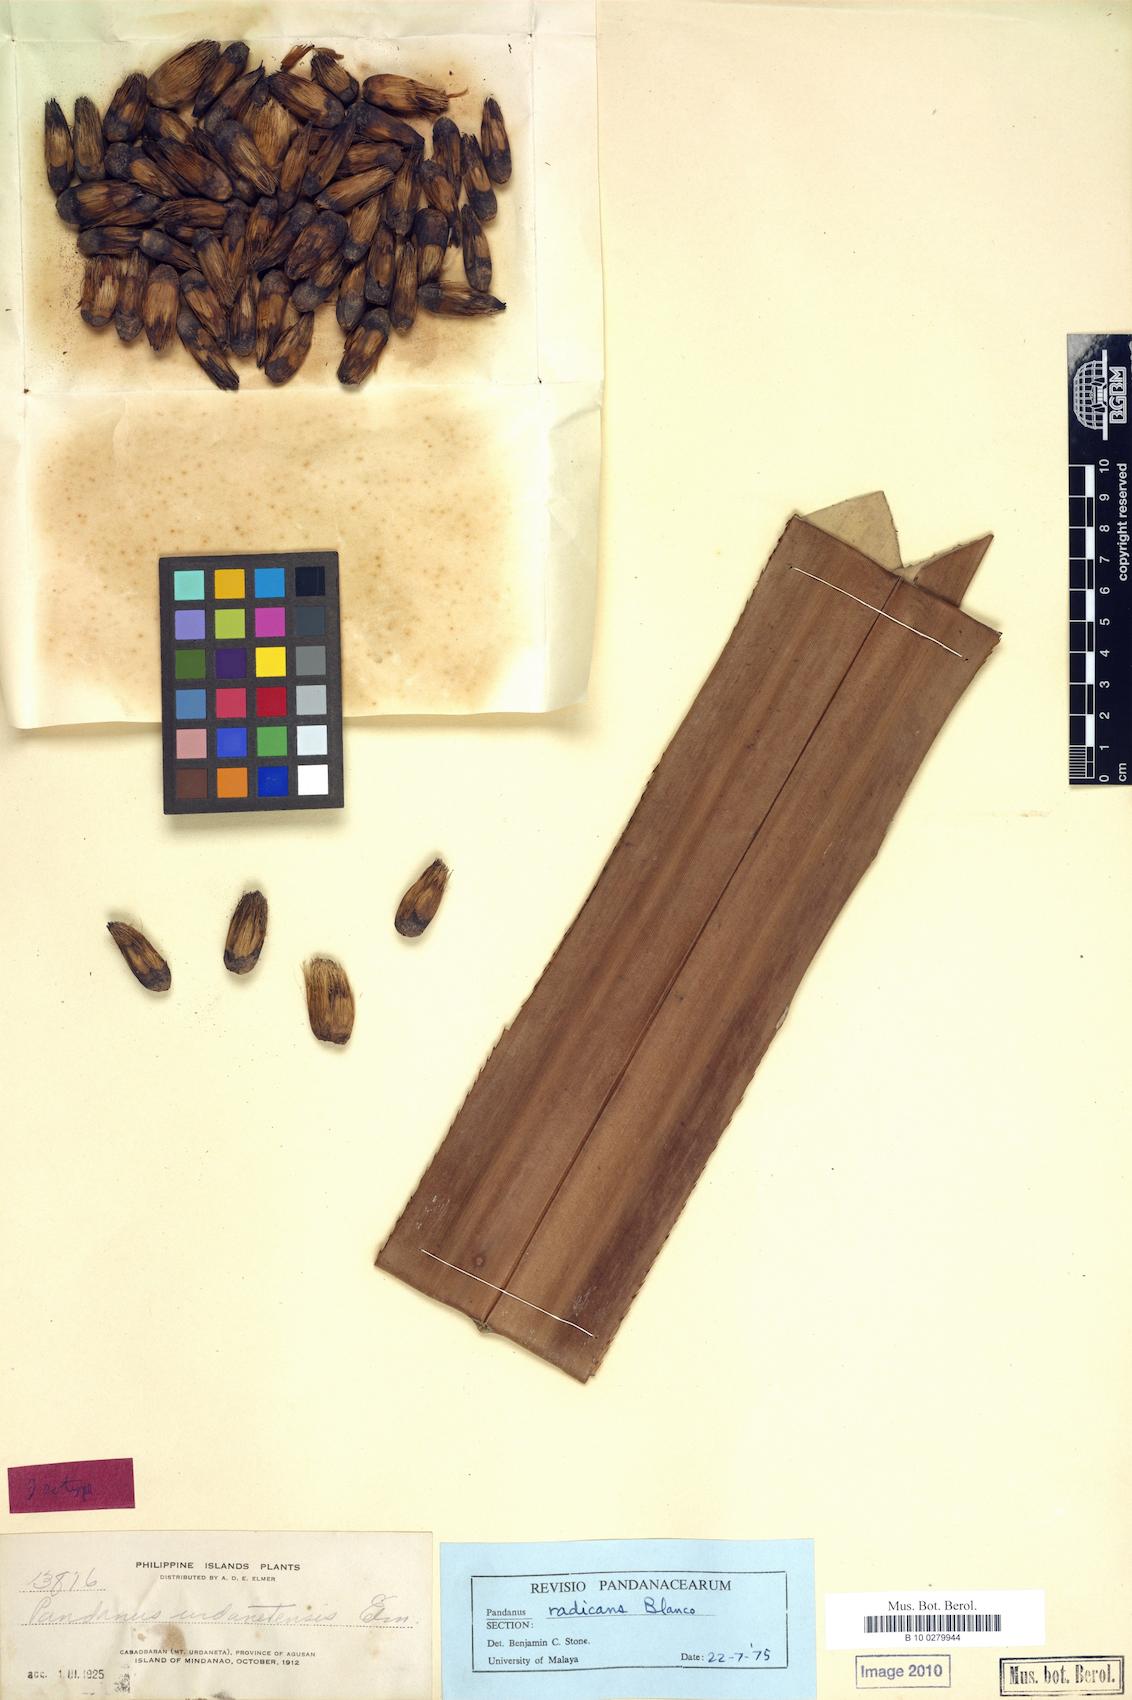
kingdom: Plantae
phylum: Tracheophyta
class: Liliopsida
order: Pandanales
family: Pandanaceae
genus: Pandanus
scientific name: Pandanus radicans
